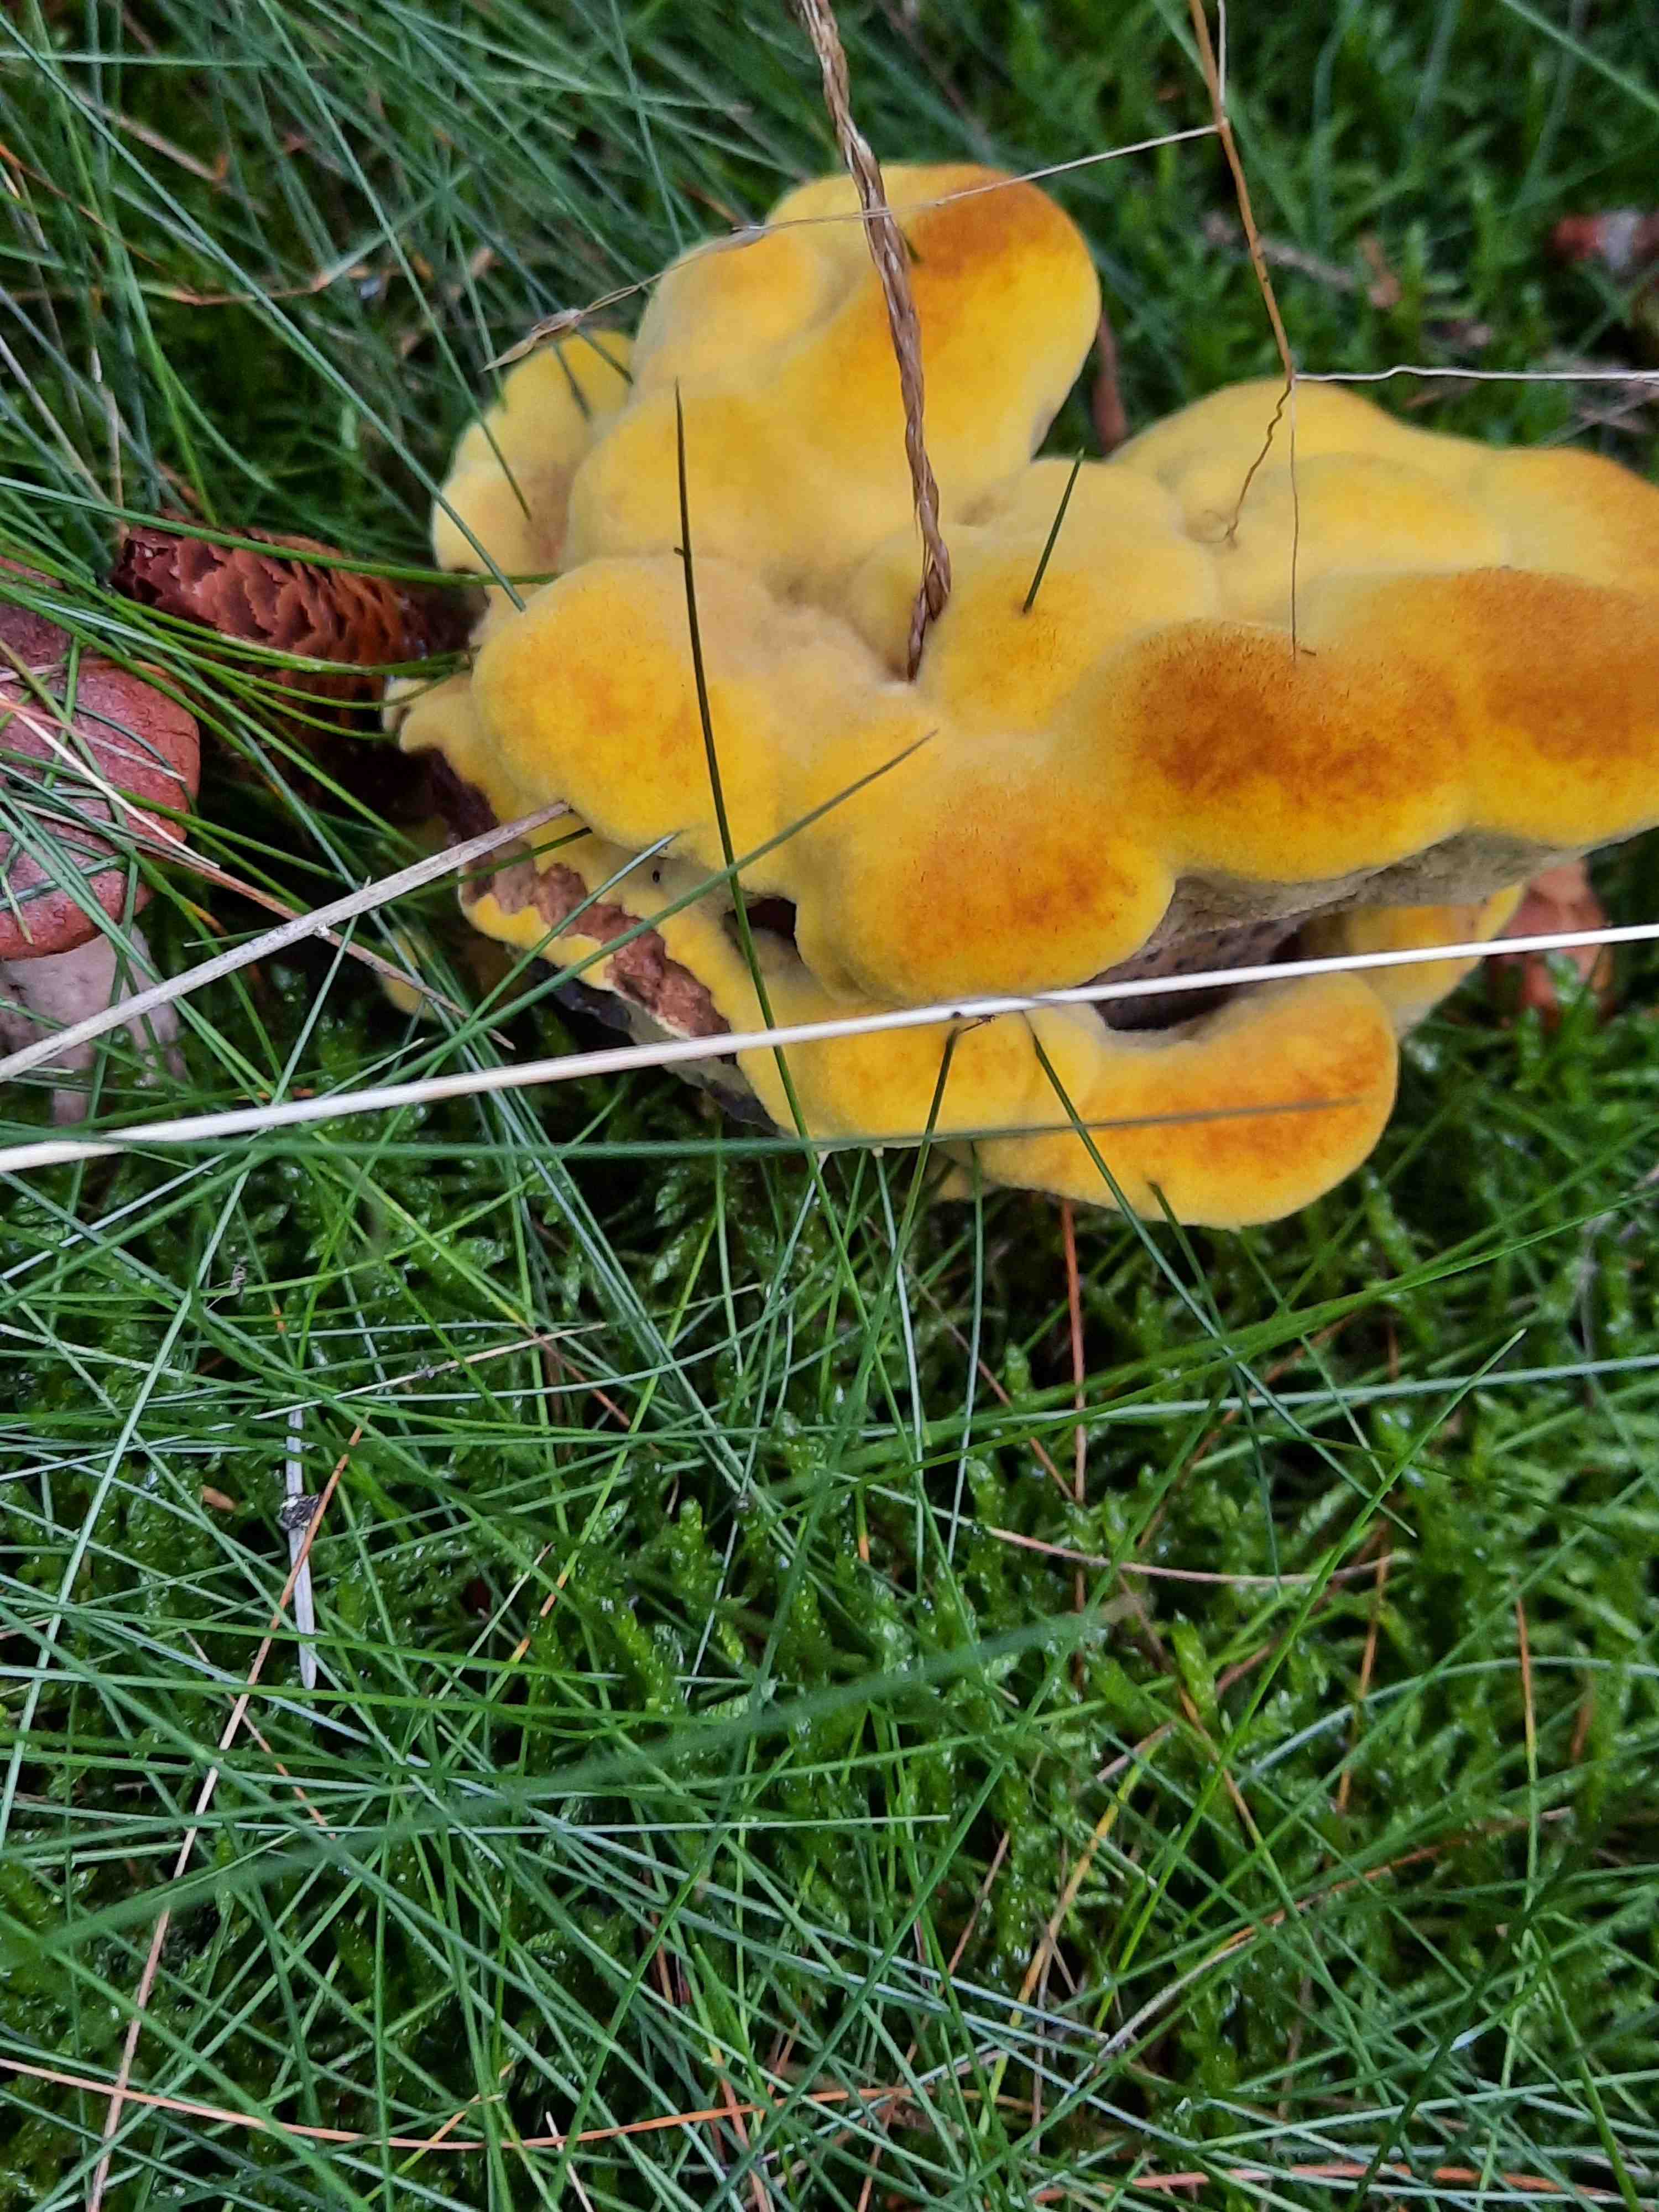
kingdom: Fungi
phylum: Basidiomycota
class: Agaricomycetes
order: Polyporales
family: Laetiporaceae
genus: Phaeolus
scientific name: Phaeolus schweinitzii
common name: brunporesvamp
